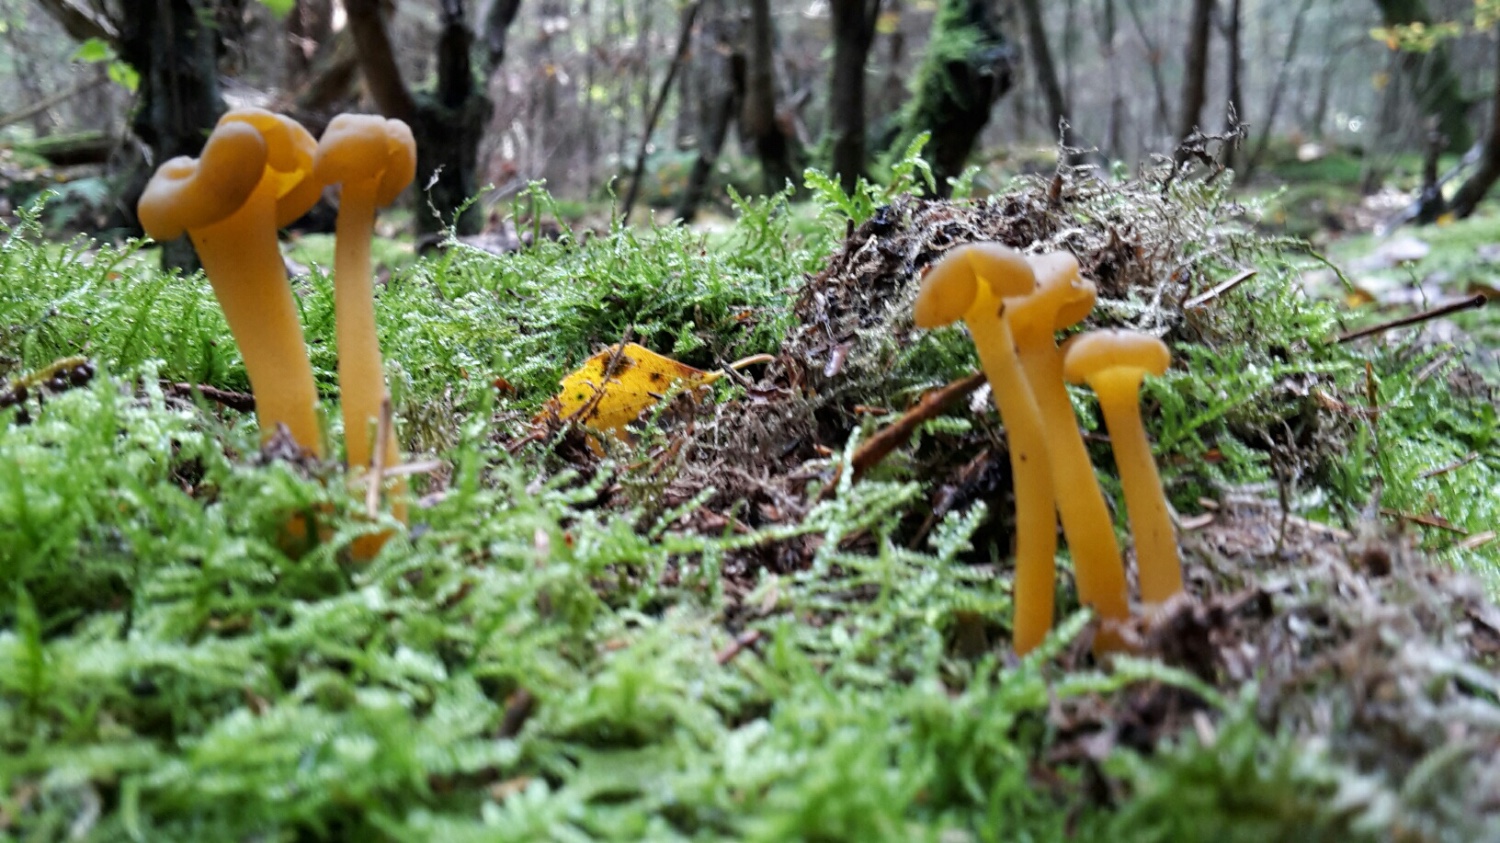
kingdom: Fungi
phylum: Ascomycota
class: Leotiomycetes
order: Leotiales
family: Leotiaceae
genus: Leotia
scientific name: Leotia lubrica
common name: ravsvamp
